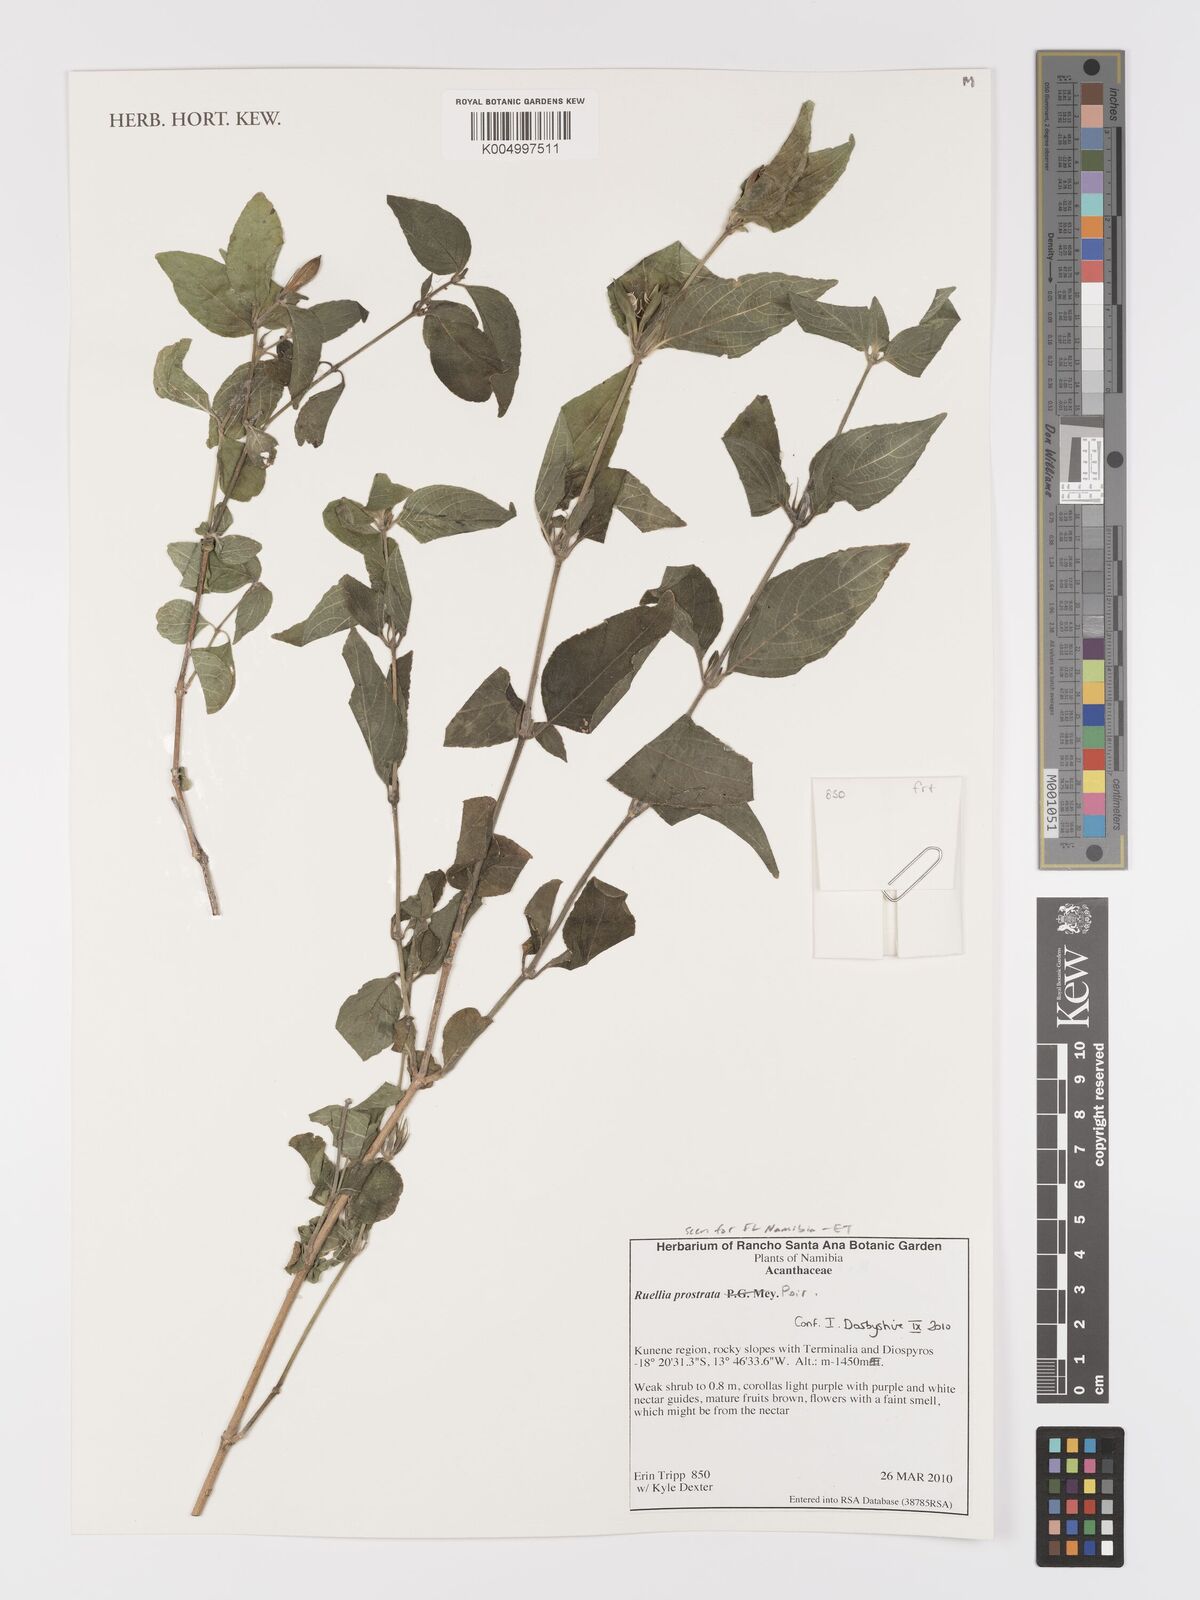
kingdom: Plantae
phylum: Tracheophyta
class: Magnoliopsida
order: Lamiales
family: Acanthaceae
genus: Ruellia
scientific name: Ruellia
